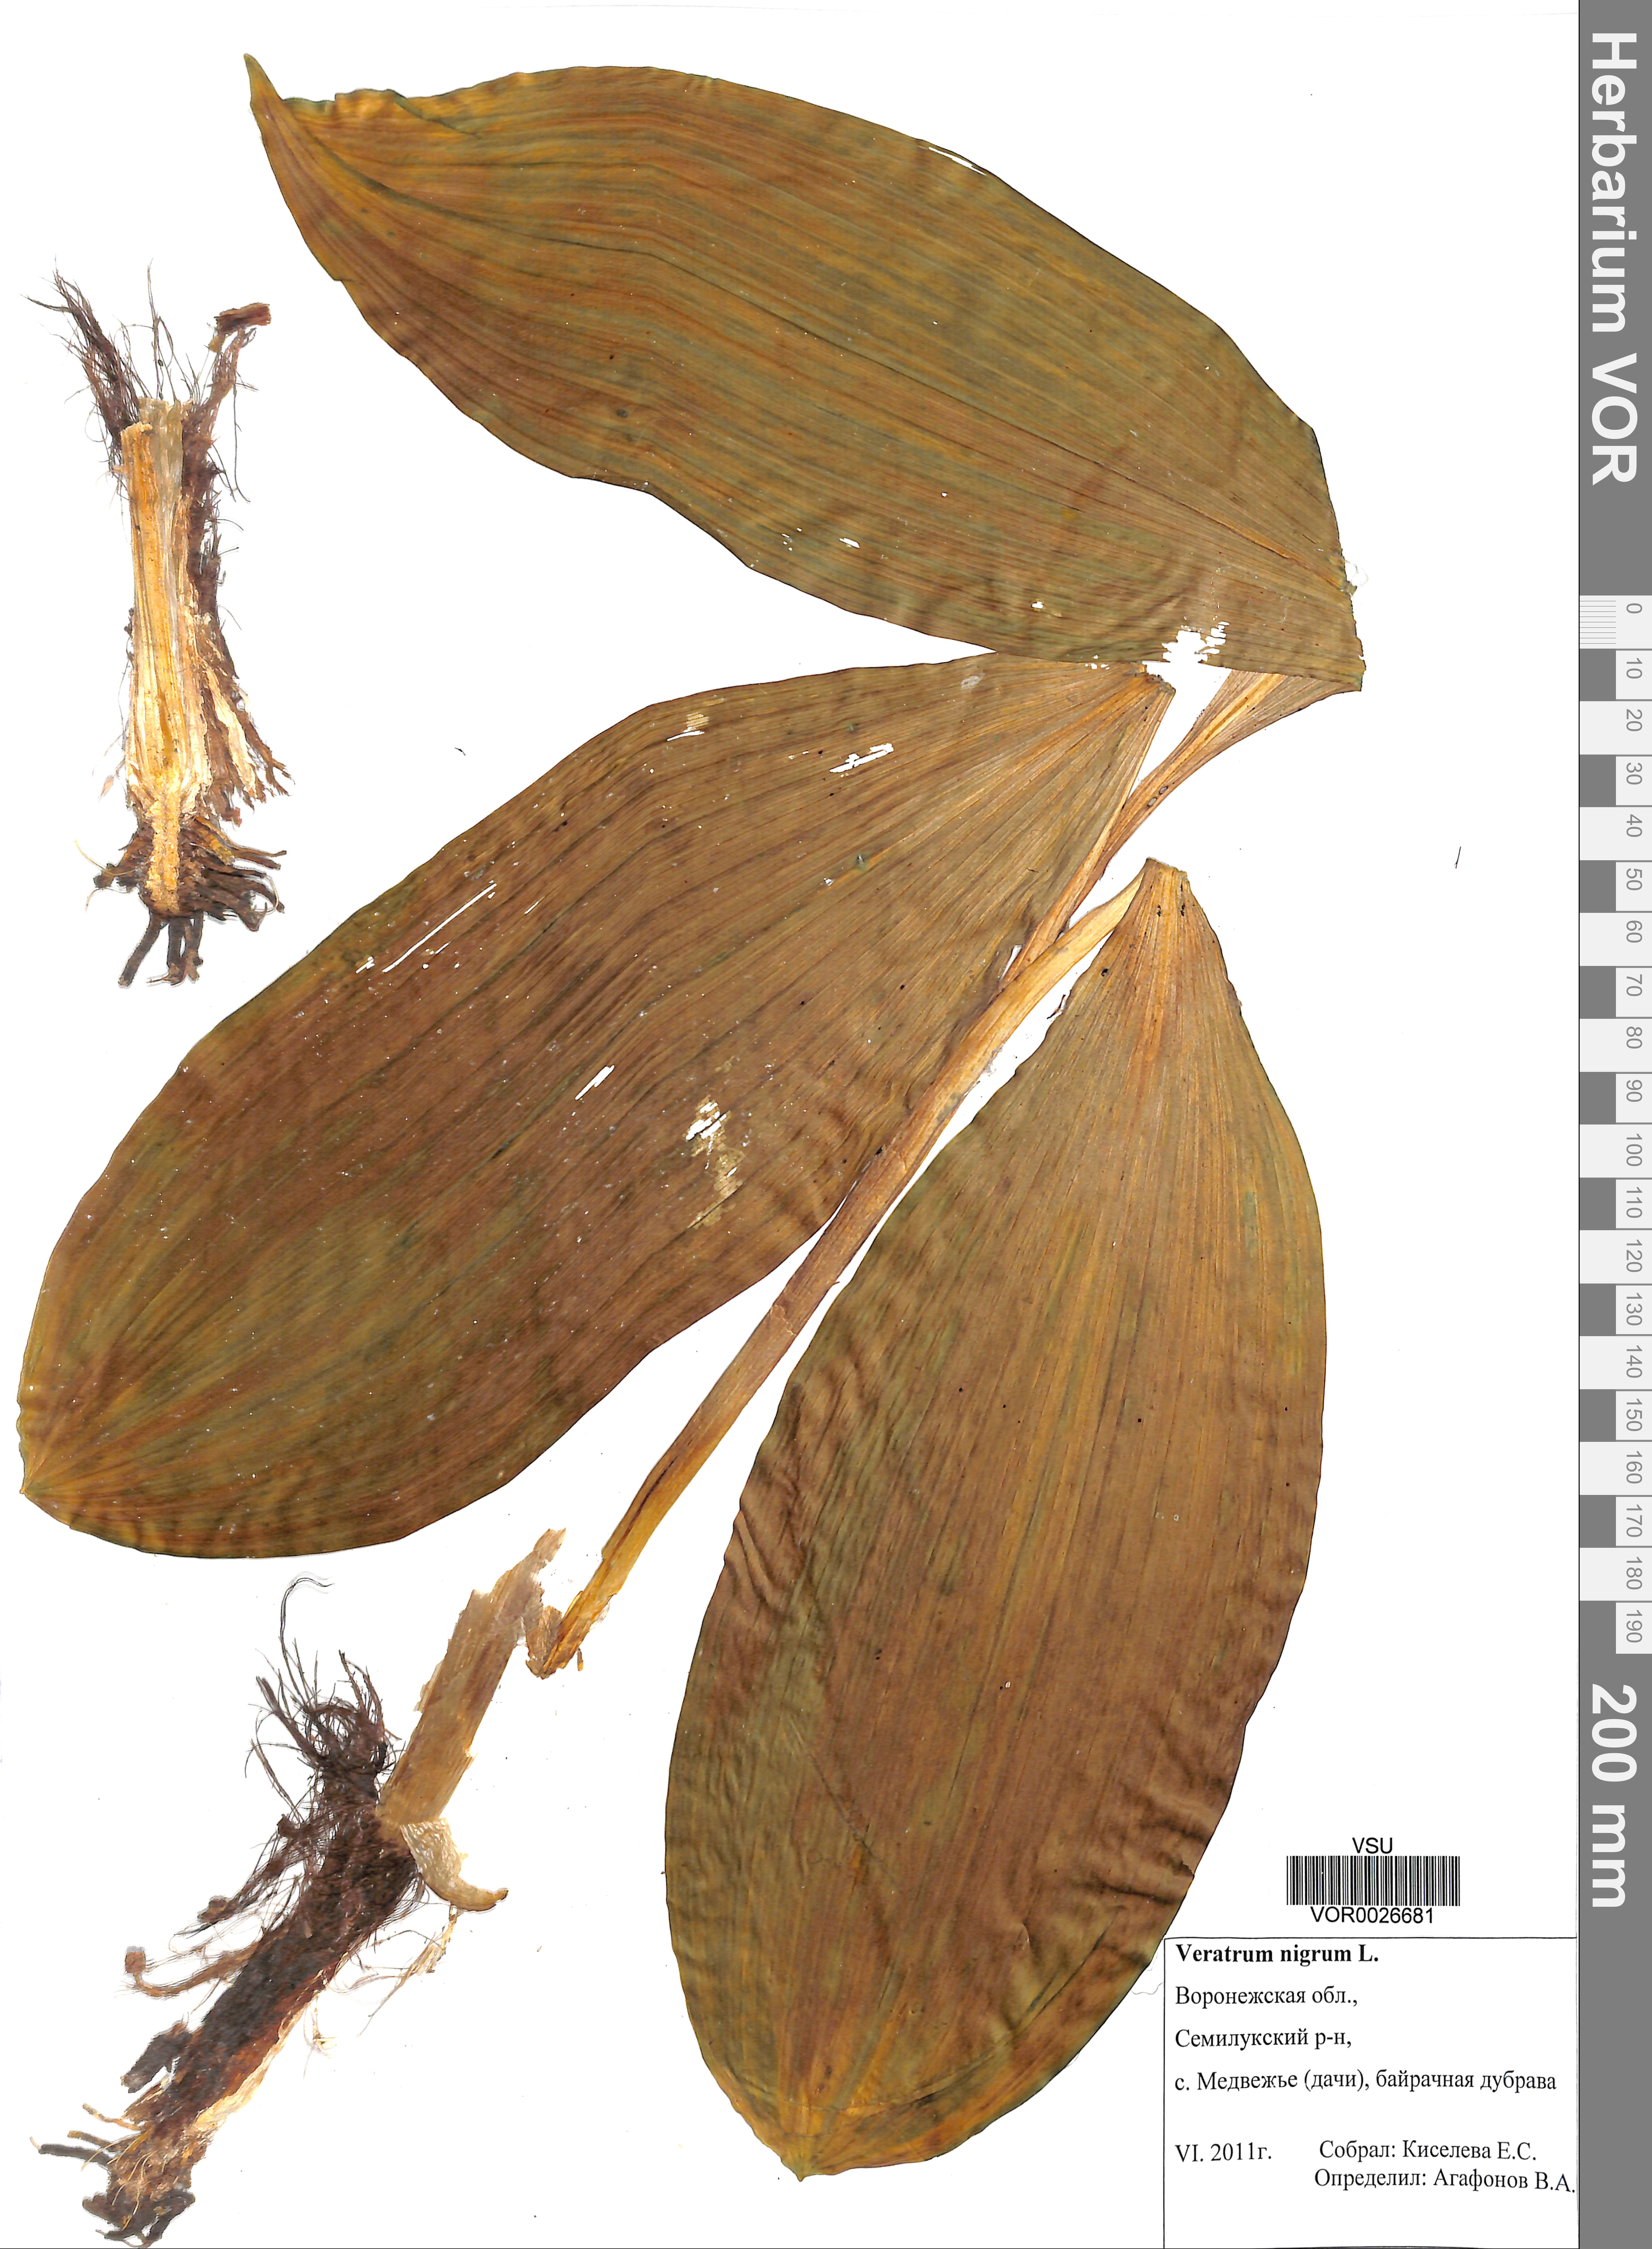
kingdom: Plantae
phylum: Tracheophyta
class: Liliopsida
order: Liliales
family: Melanthiaceae
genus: Veratrum
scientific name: Veratrum nigrum
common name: Black veratrum
